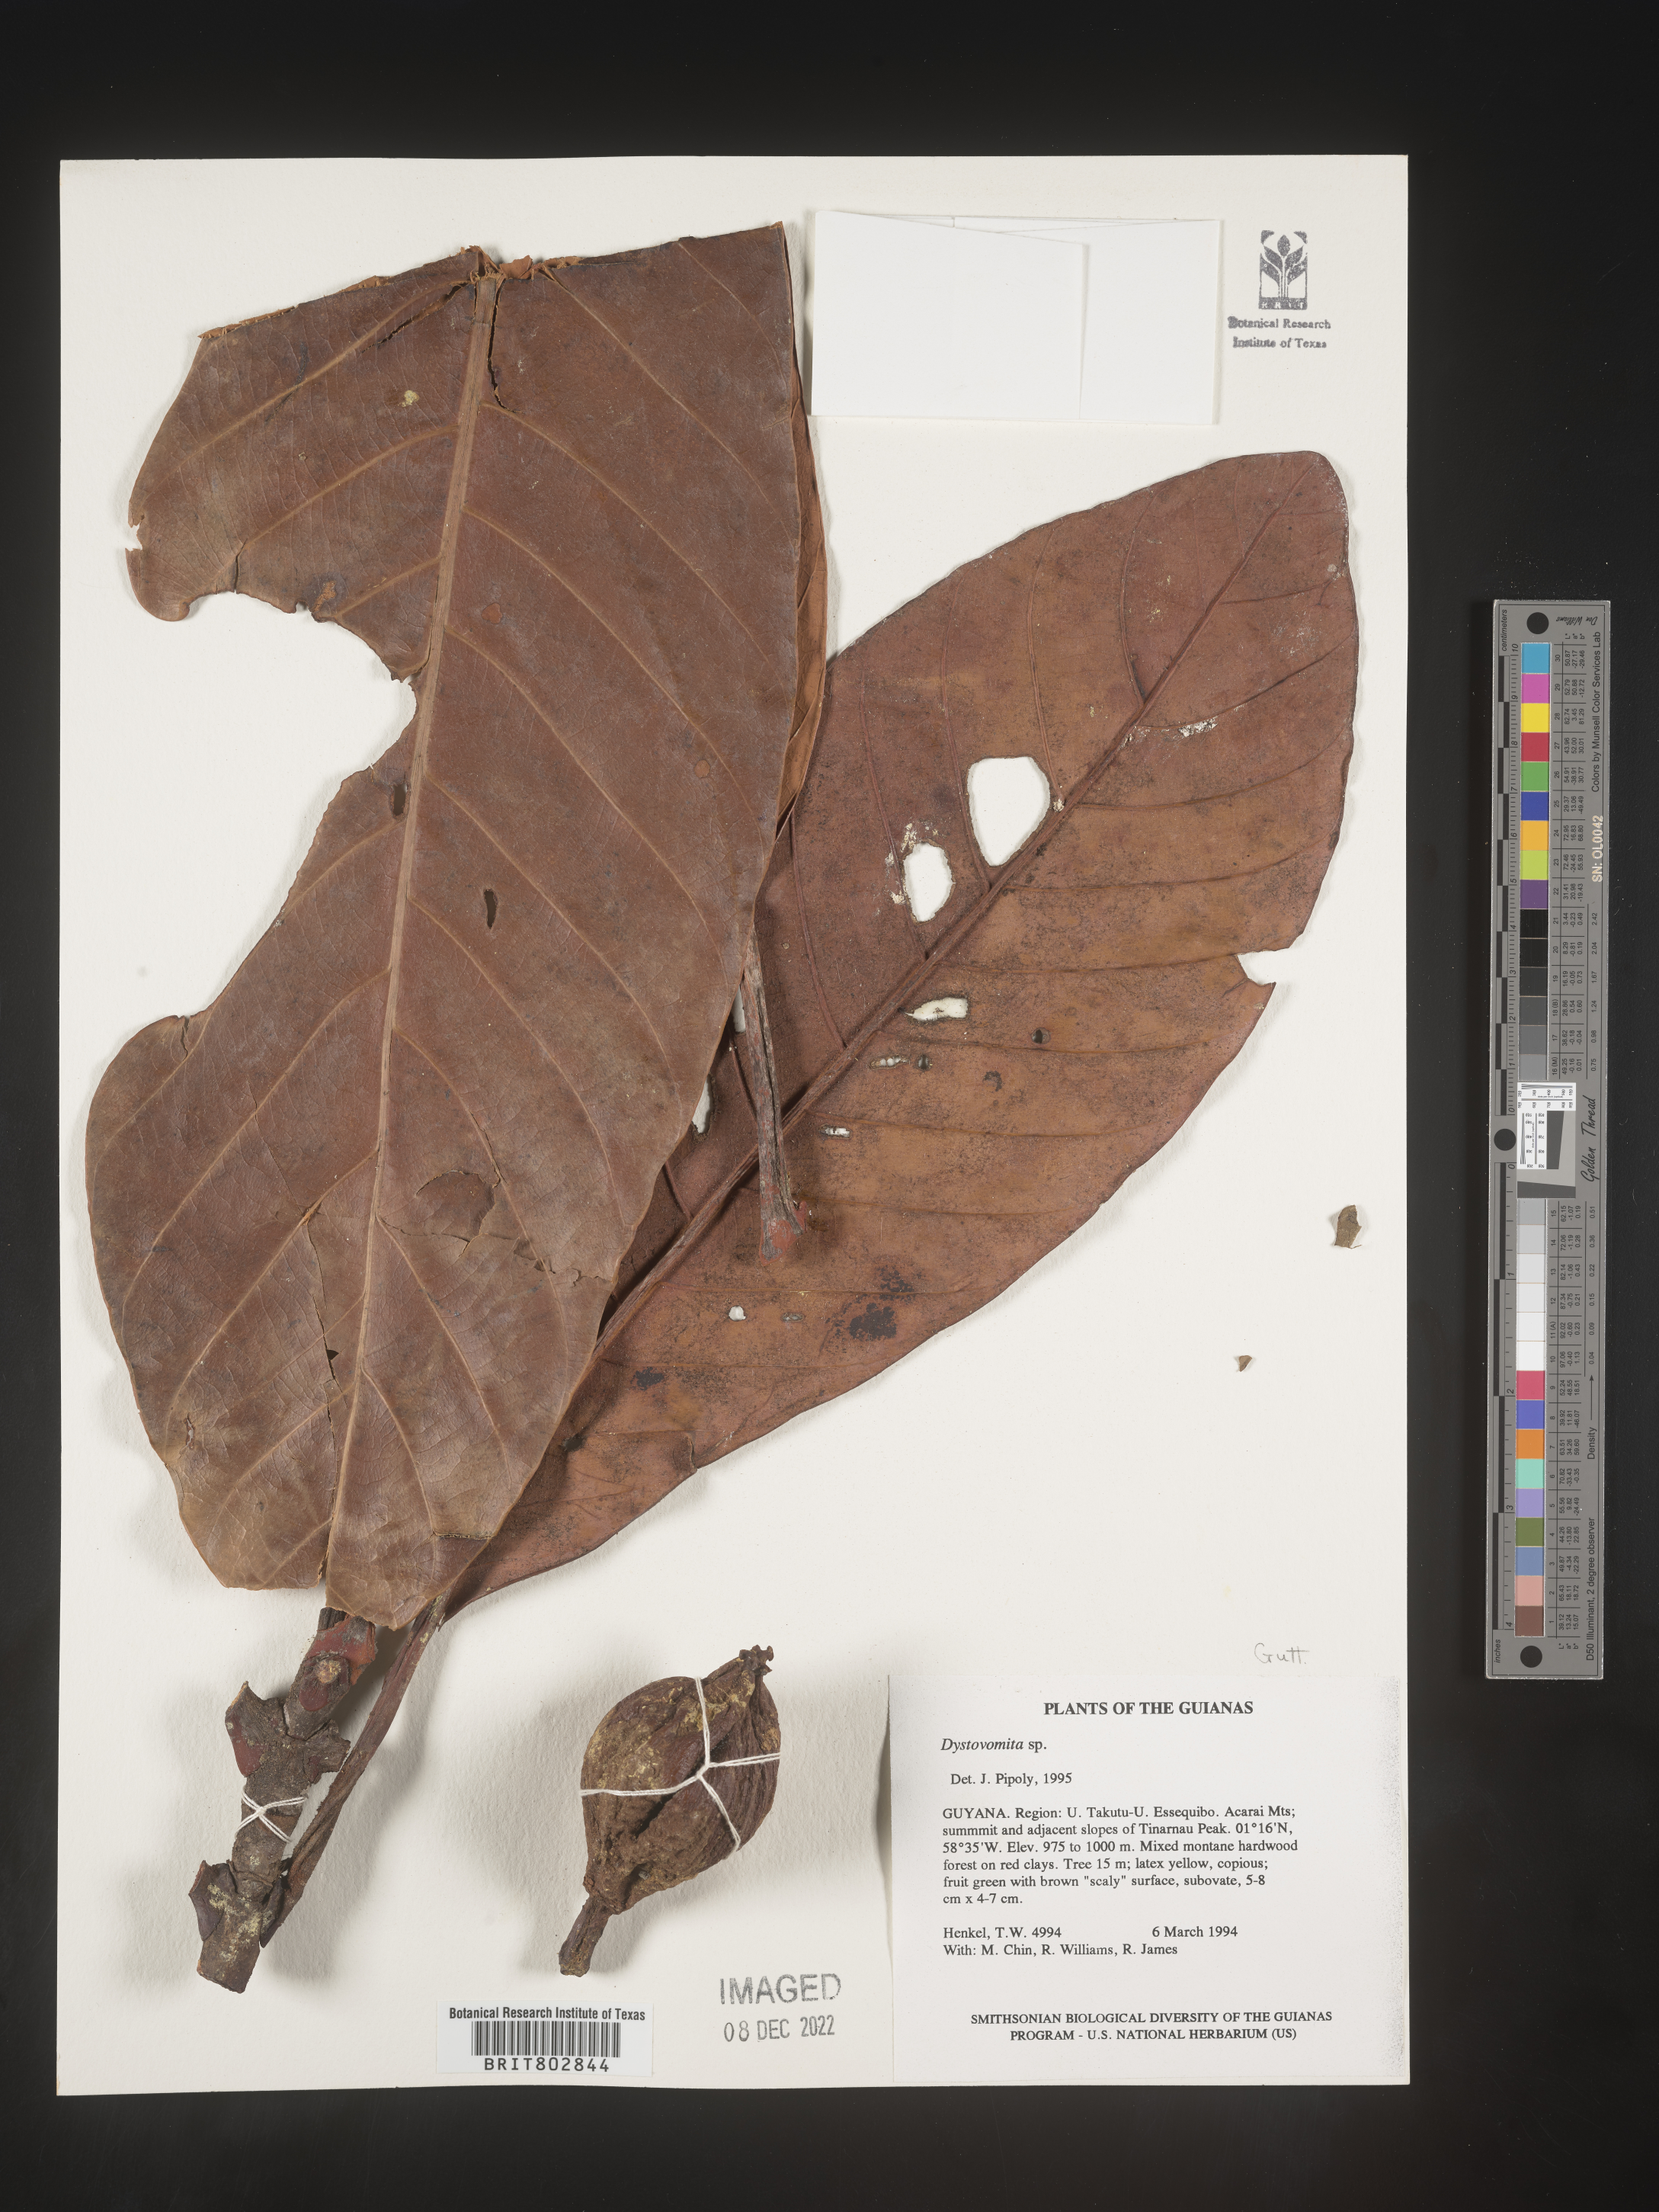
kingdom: Plantae
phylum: Tracheophyta
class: Magnoliopsida
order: Malpighiales
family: Clusiaceae
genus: Dystovomita
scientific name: Dystovomita
